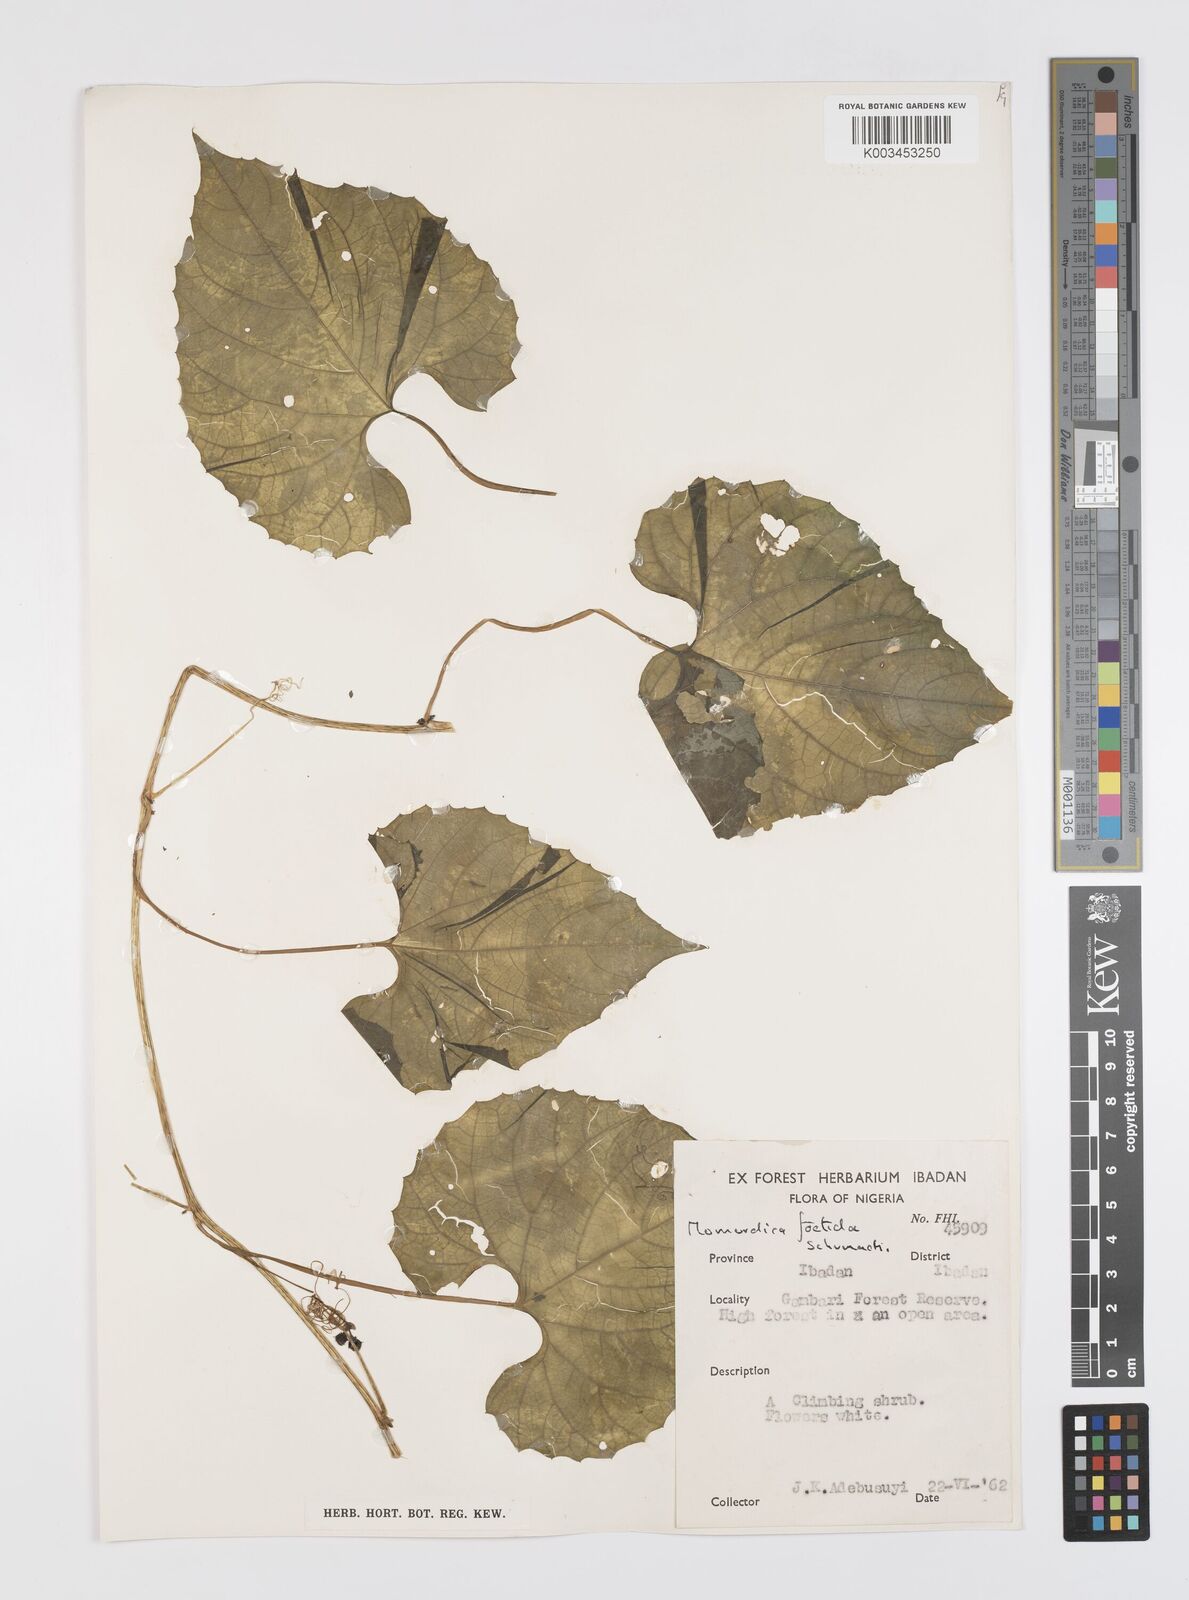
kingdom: Plantae
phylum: Tracheophyta
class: Magnoliopsida
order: Cucurbitales
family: Cucurbitaceae
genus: Momordica
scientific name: Momordica foetida
